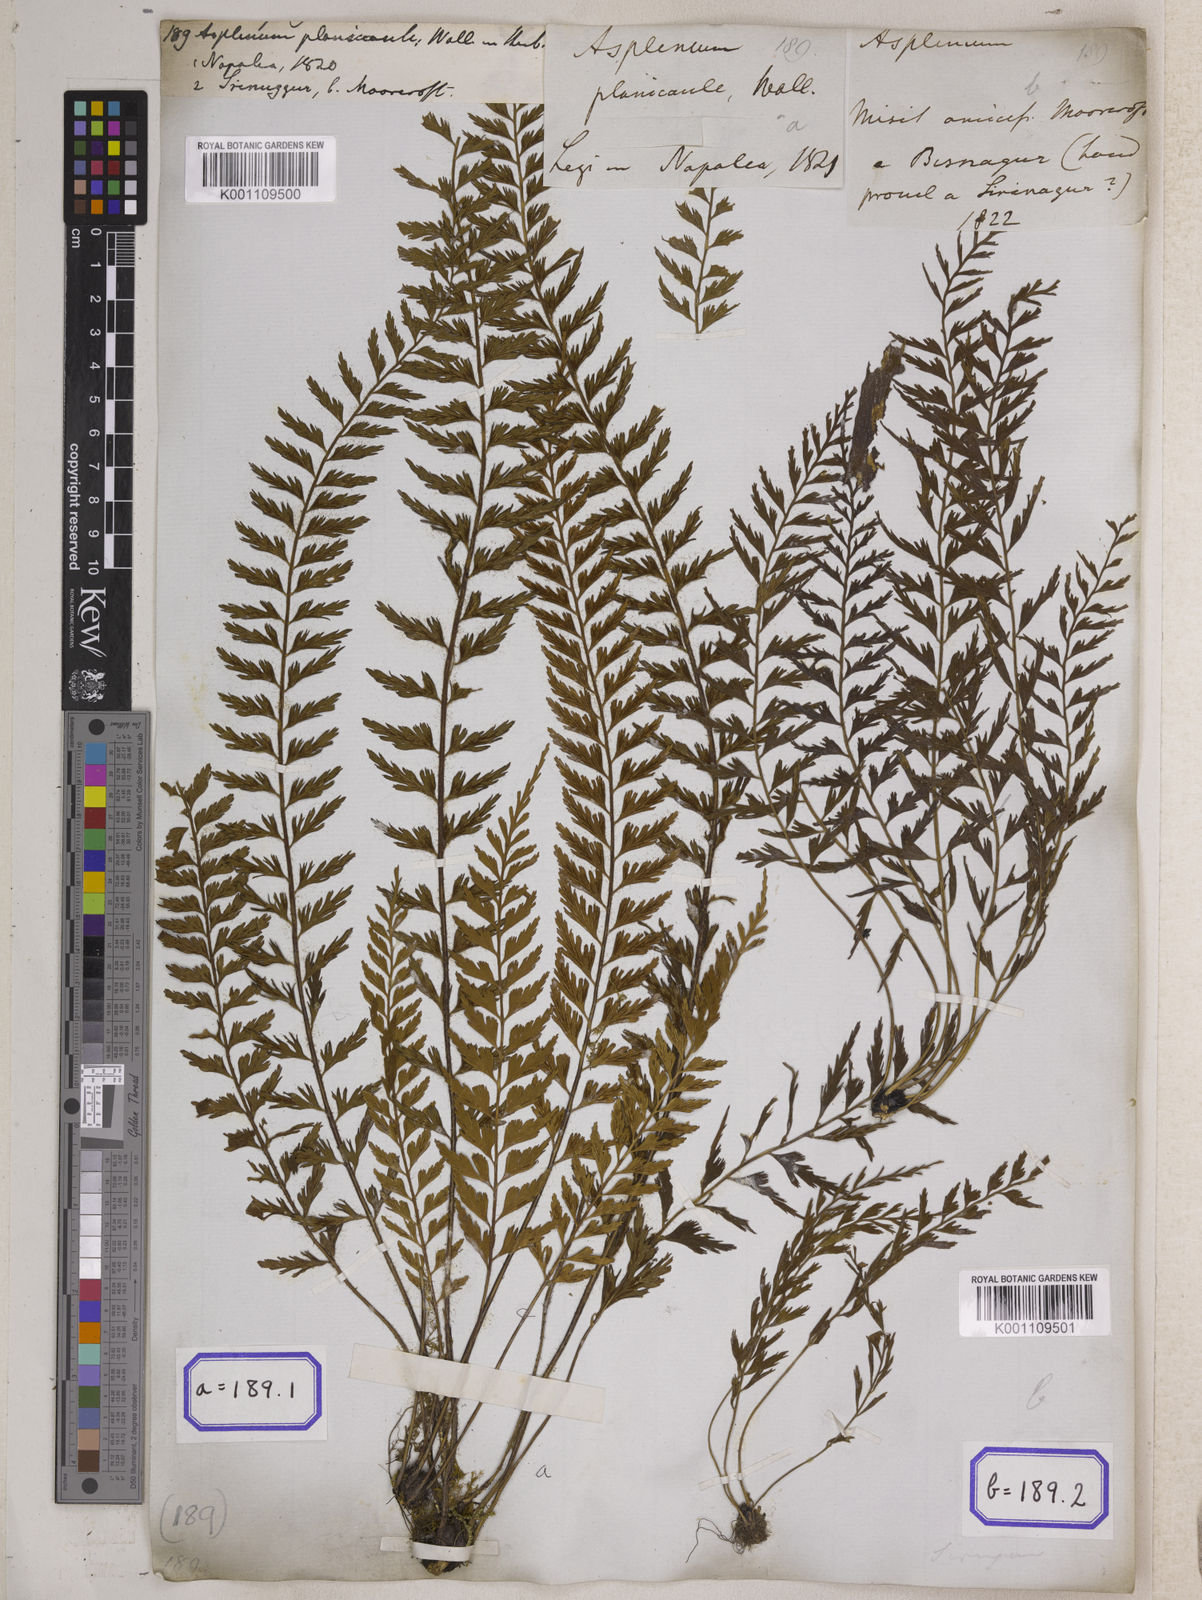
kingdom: Plantae
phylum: Tracheophyta
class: Polypodiopsida
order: Polypodiales
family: Aspleniaceae
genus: Asplenium
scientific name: Asplenium yoshinagae
